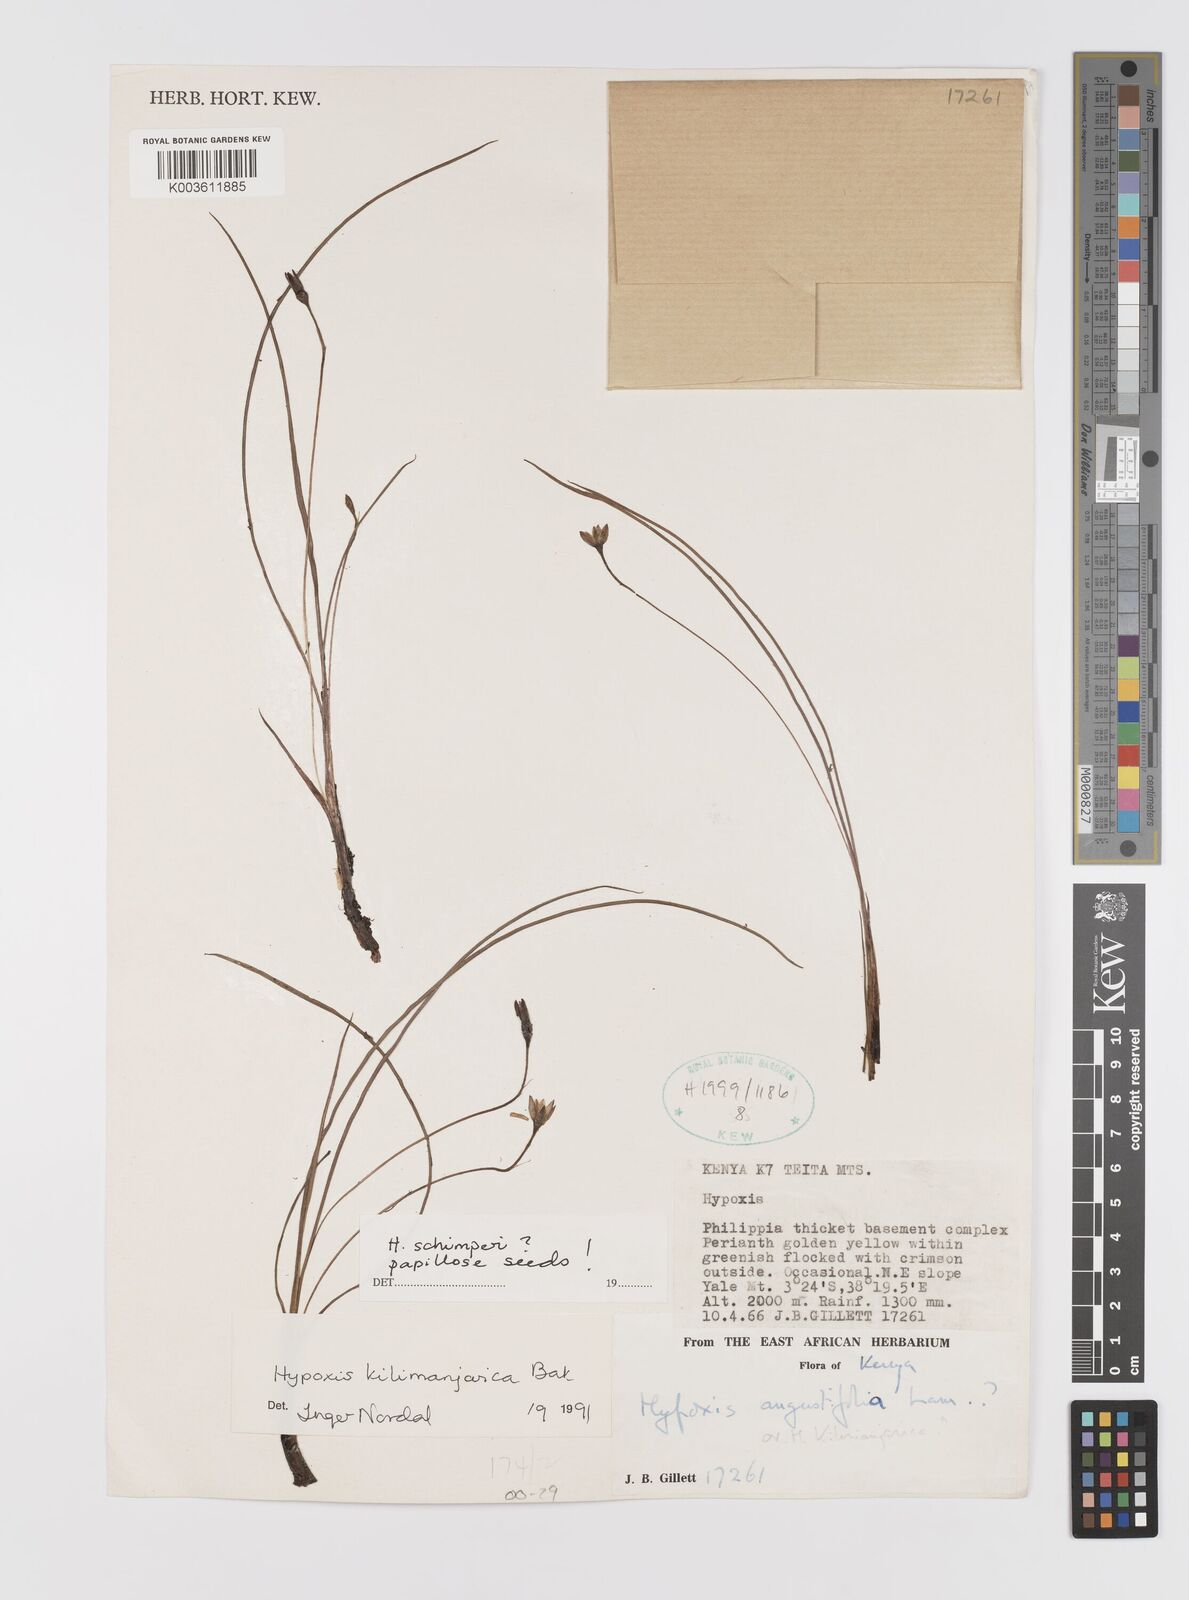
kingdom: Plantae
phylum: Tracheophyta
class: Liliopsida
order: Asparagales
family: Hypoxidaceae
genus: Hypoxis
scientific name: Hypoxis schimperi
